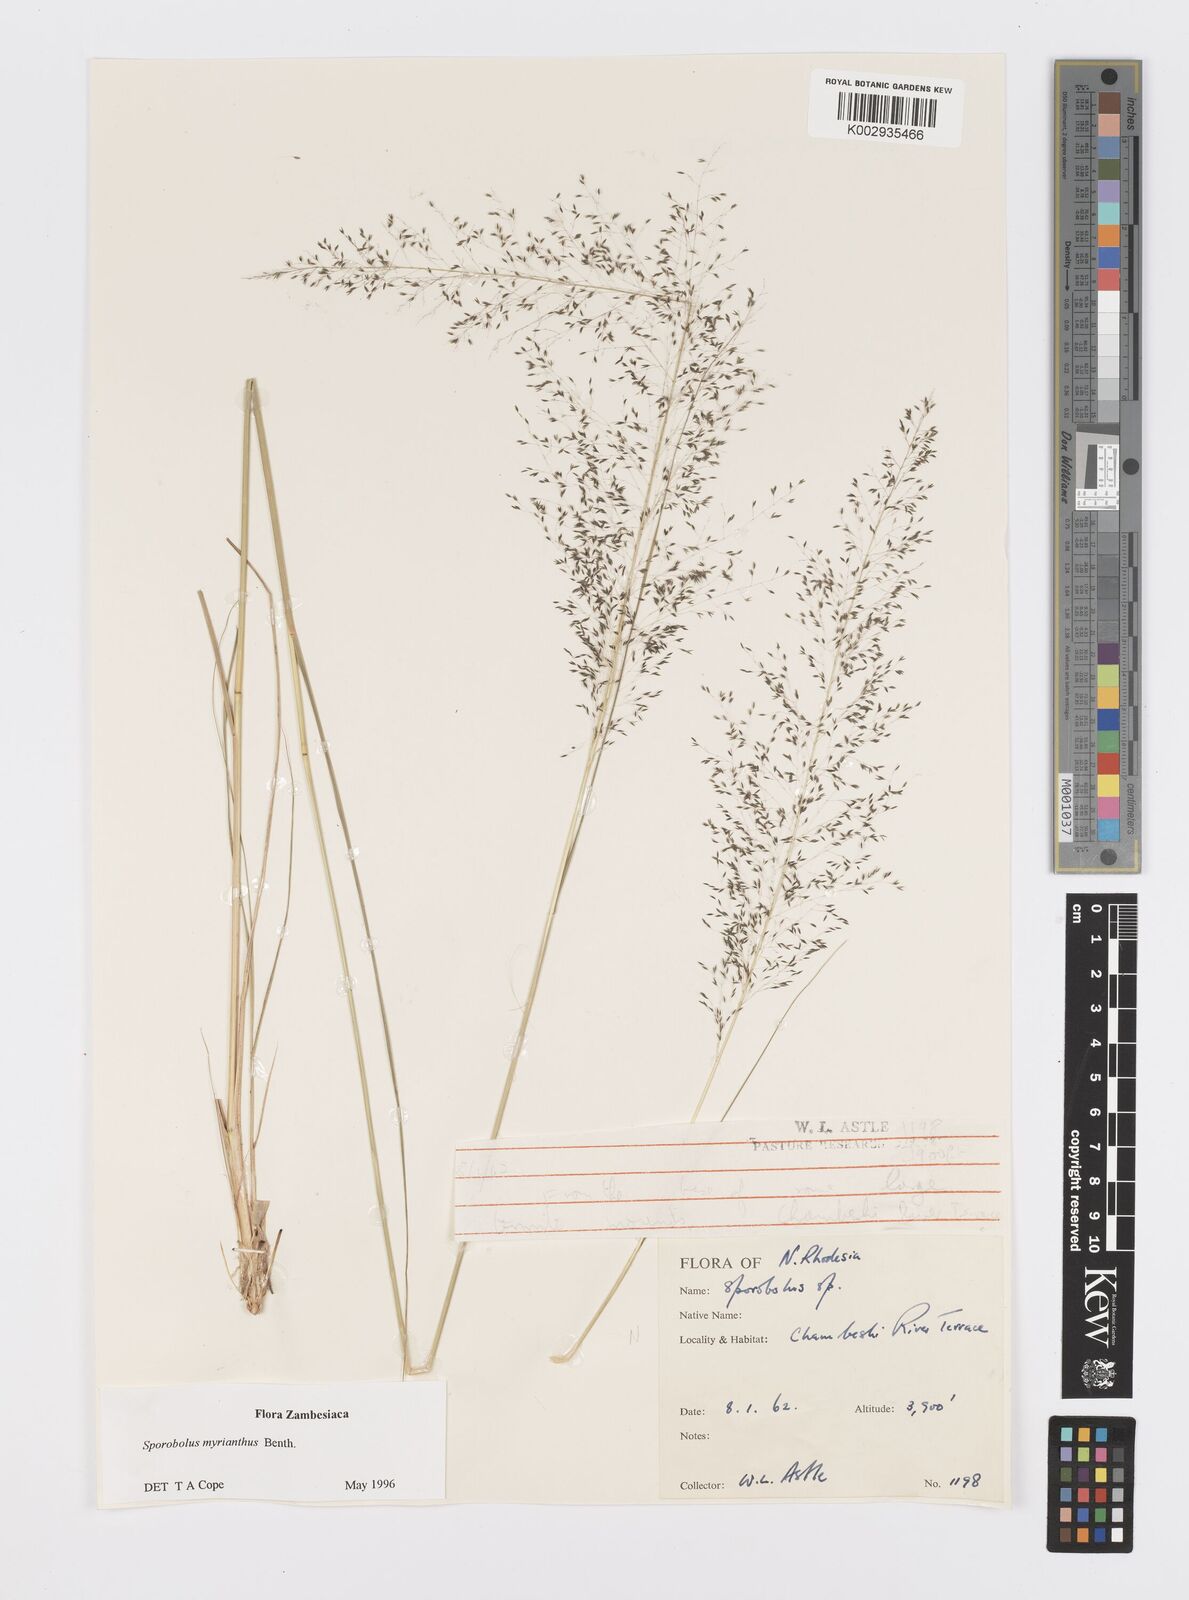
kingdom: Plantae
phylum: Tracheophyta
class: Liliopsida
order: Poales
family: Poaceae
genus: Sporobolus
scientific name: Sporobolus myrianthus
